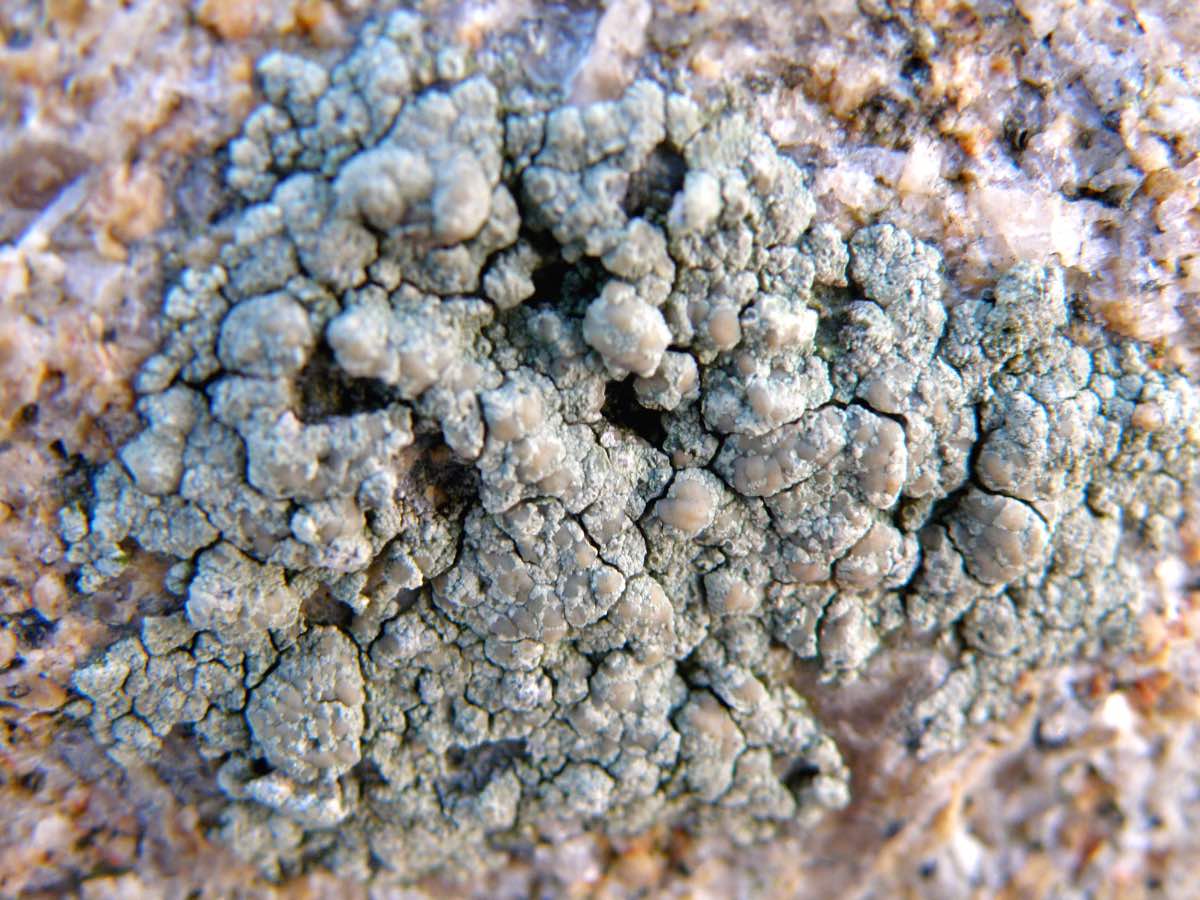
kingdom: Fungi
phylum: Ascomycota
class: Lecanoromycetes
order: Lecanorales
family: Lecanoraceae
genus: Glaucomaria
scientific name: Glaucomaria sulphurea
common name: svovlgul kantskivelav
